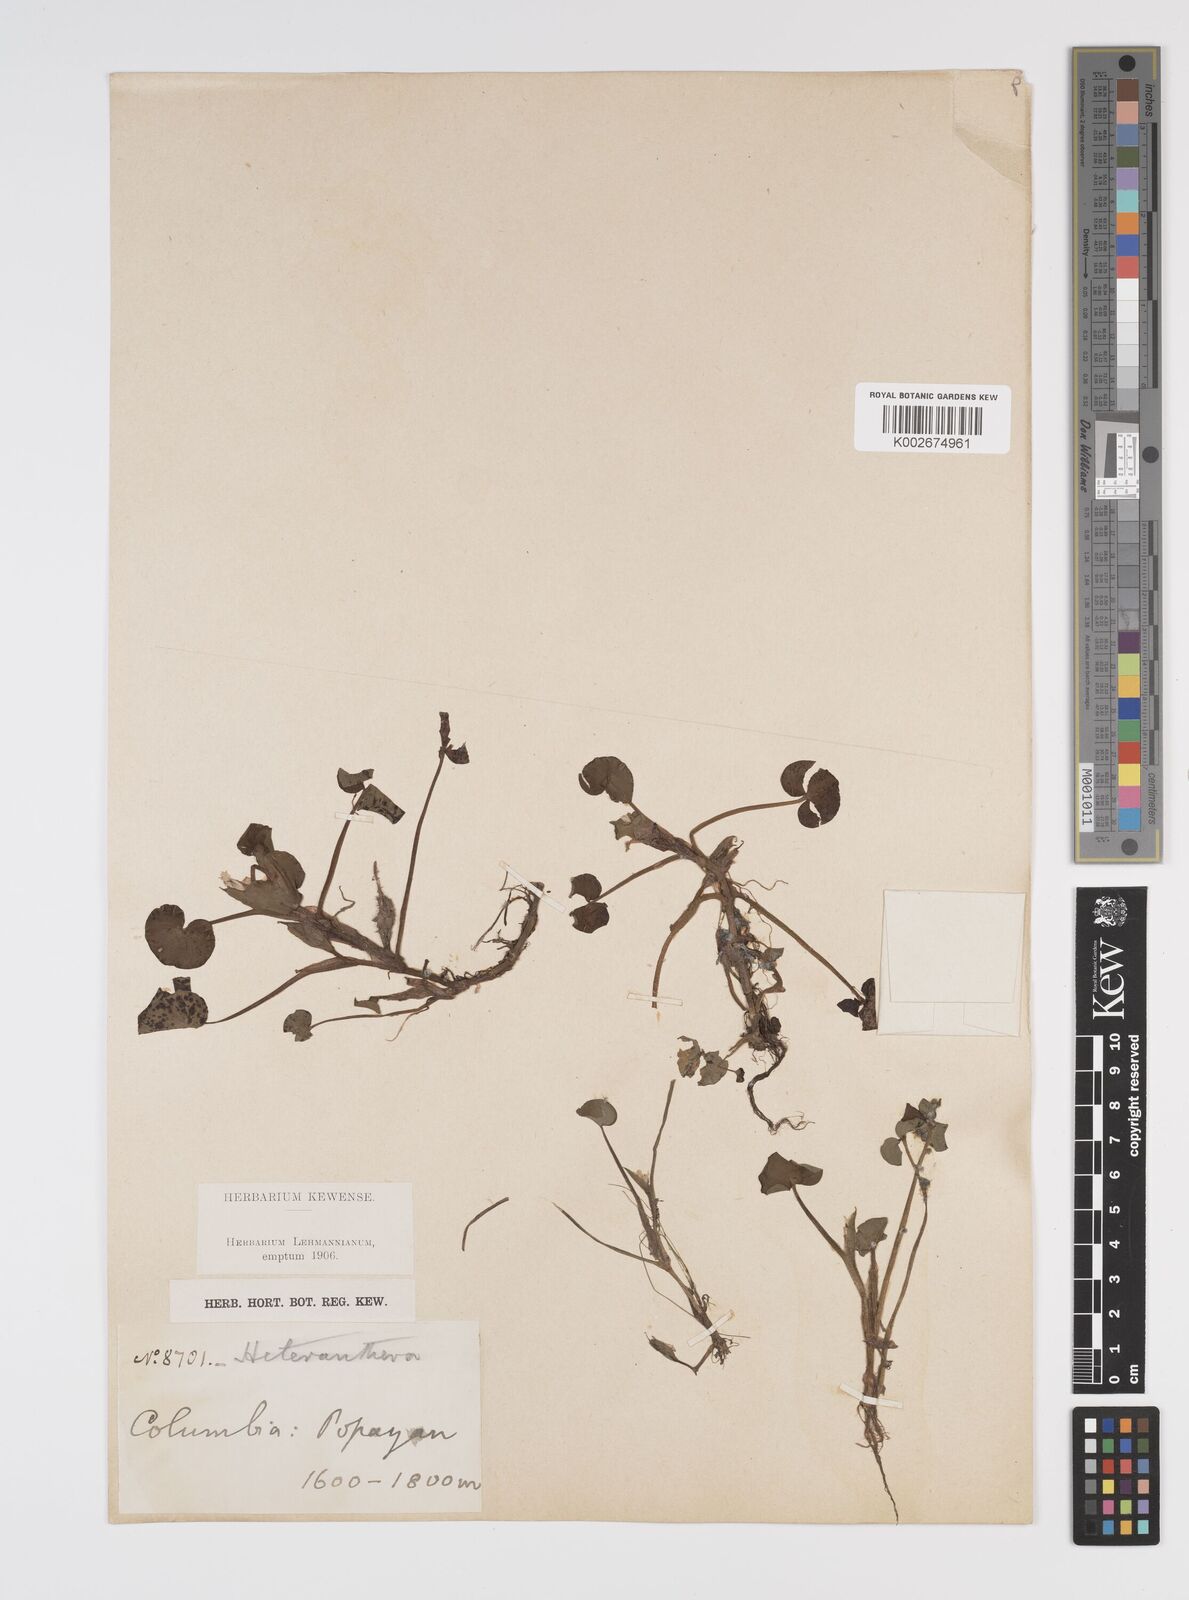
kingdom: Plantae
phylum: Tracheophyta
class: Liliopsida
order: Commelinales
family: Pontederiaceae
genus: Heteranthera
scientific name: Heteranthera reniformis
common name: Kidneyleaf mudplantain
